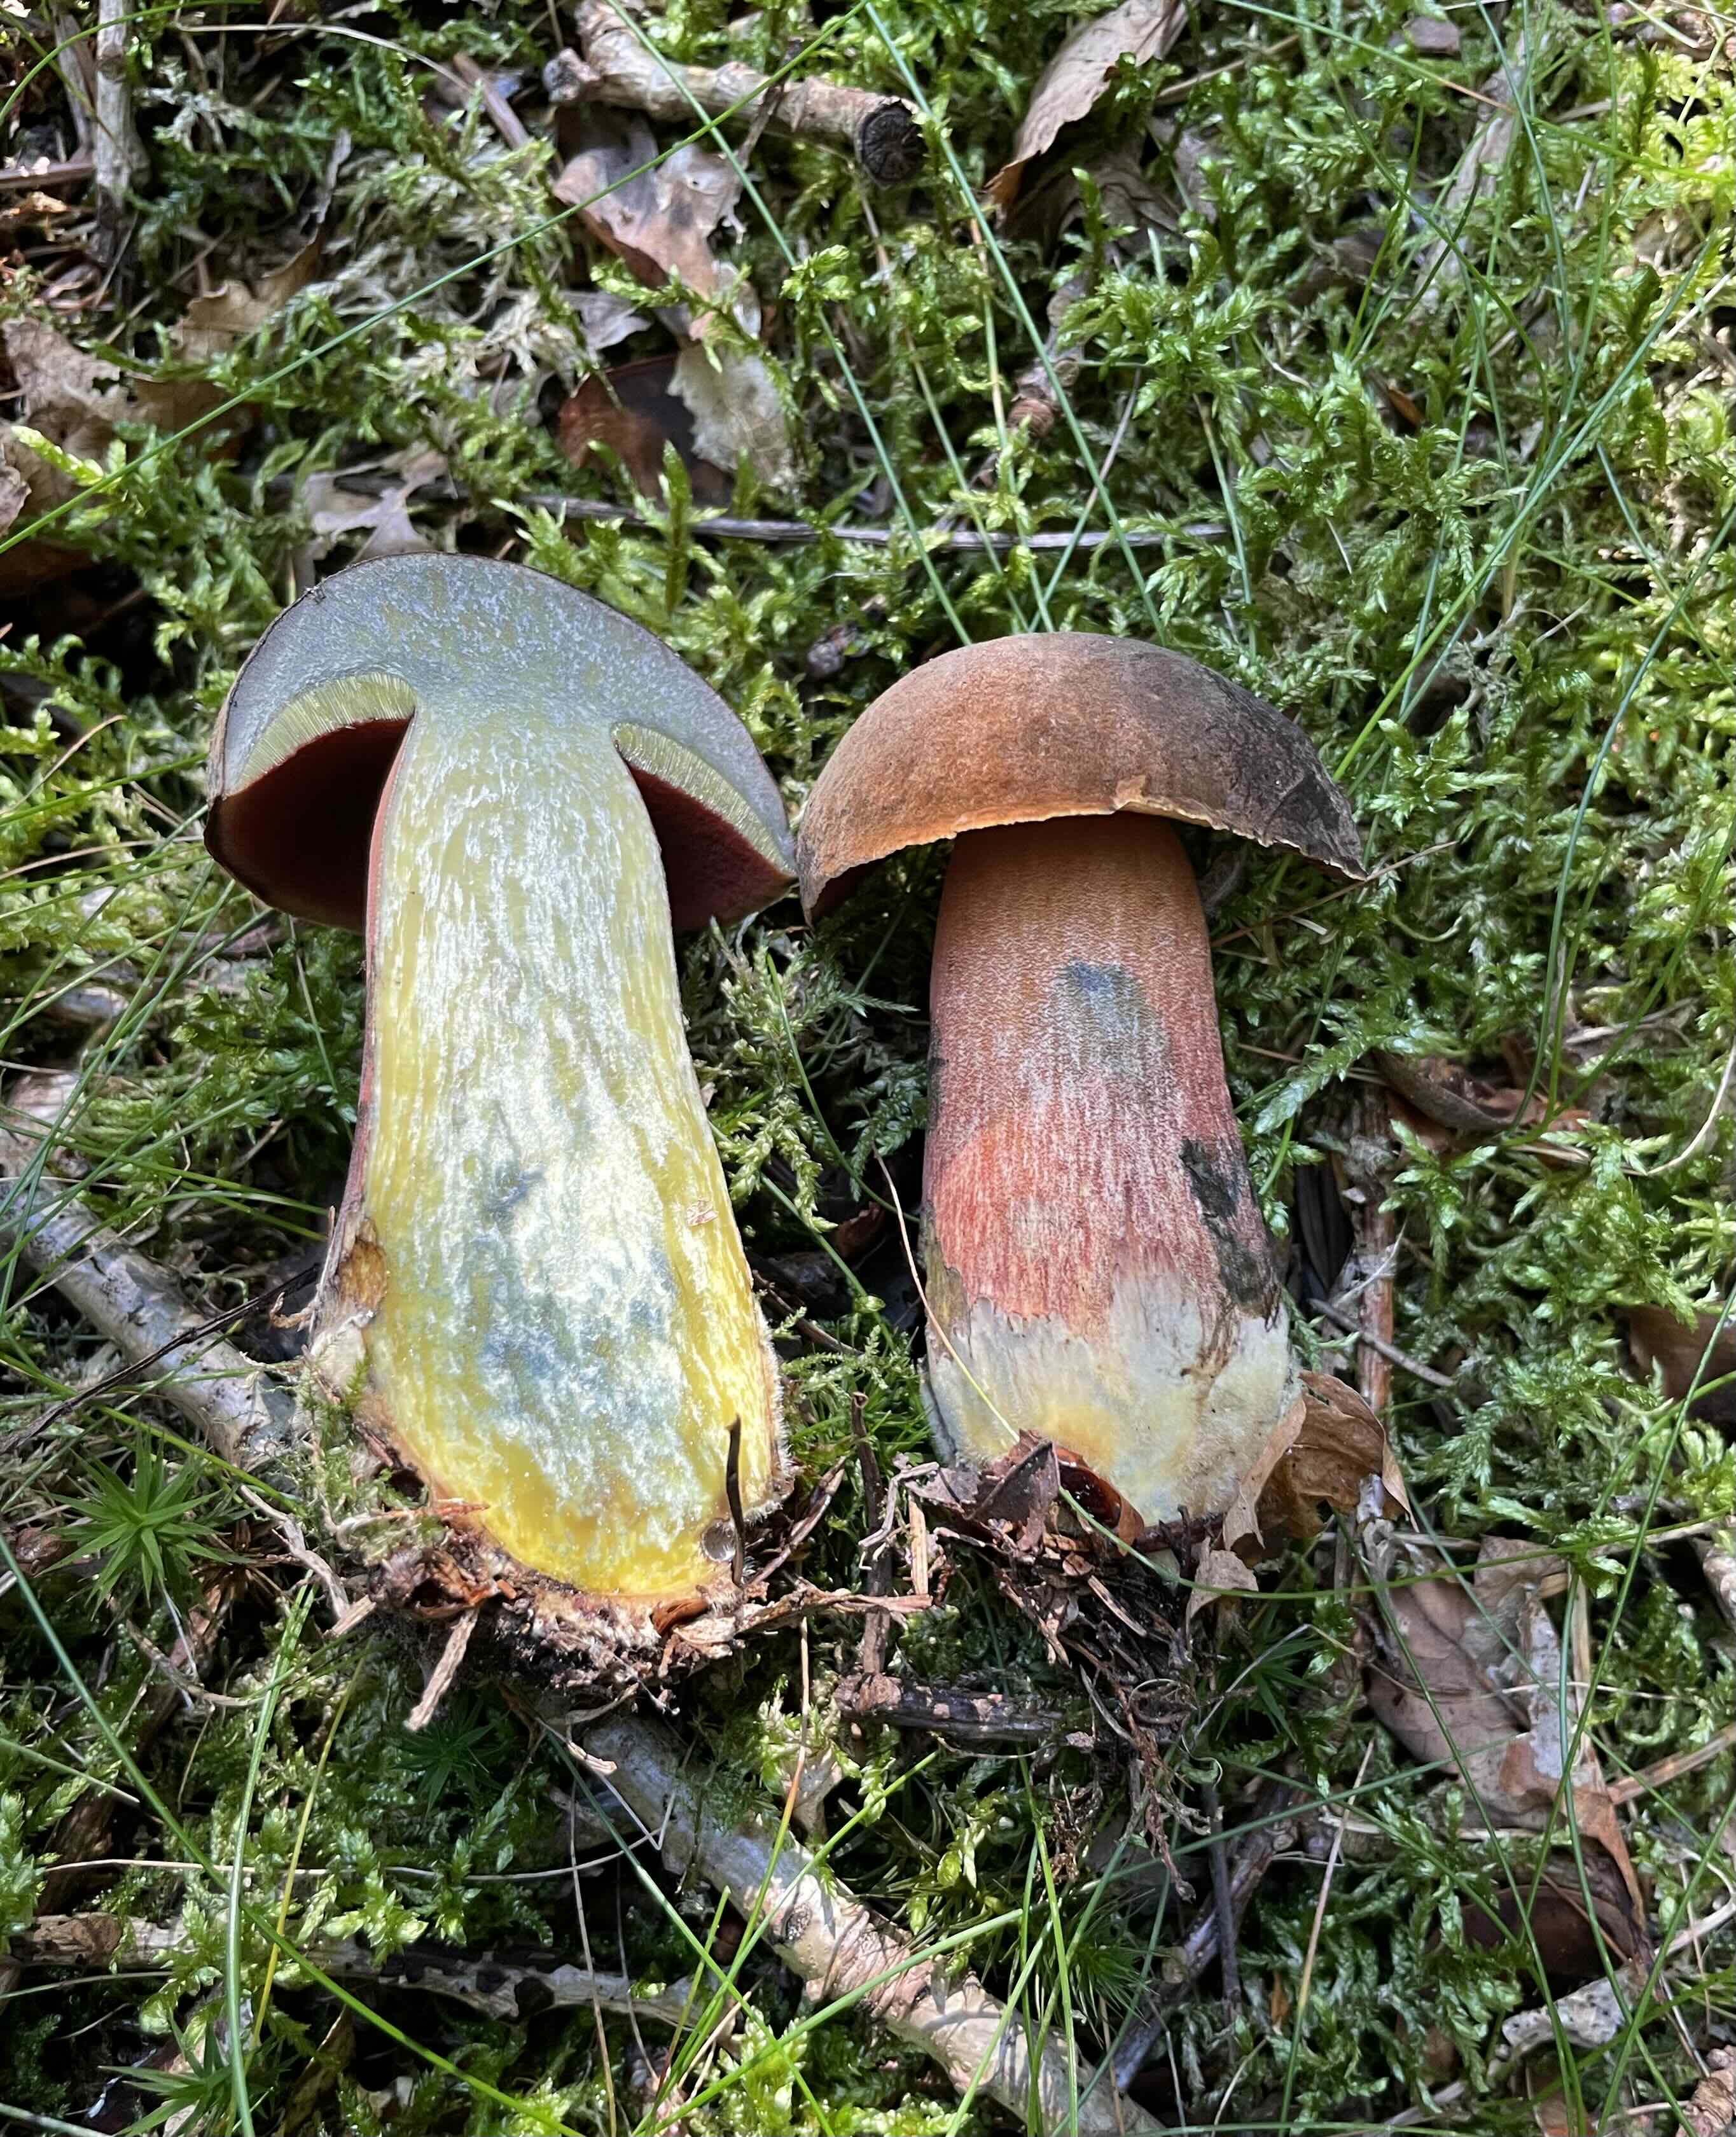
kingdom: Fungi
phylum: Basidiomycota
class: Agaricomycetes
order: Boletales
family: Boletaceae
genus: Neoboletus
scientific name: Neoboletus erythropus
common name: punktstokket indigorørhat
